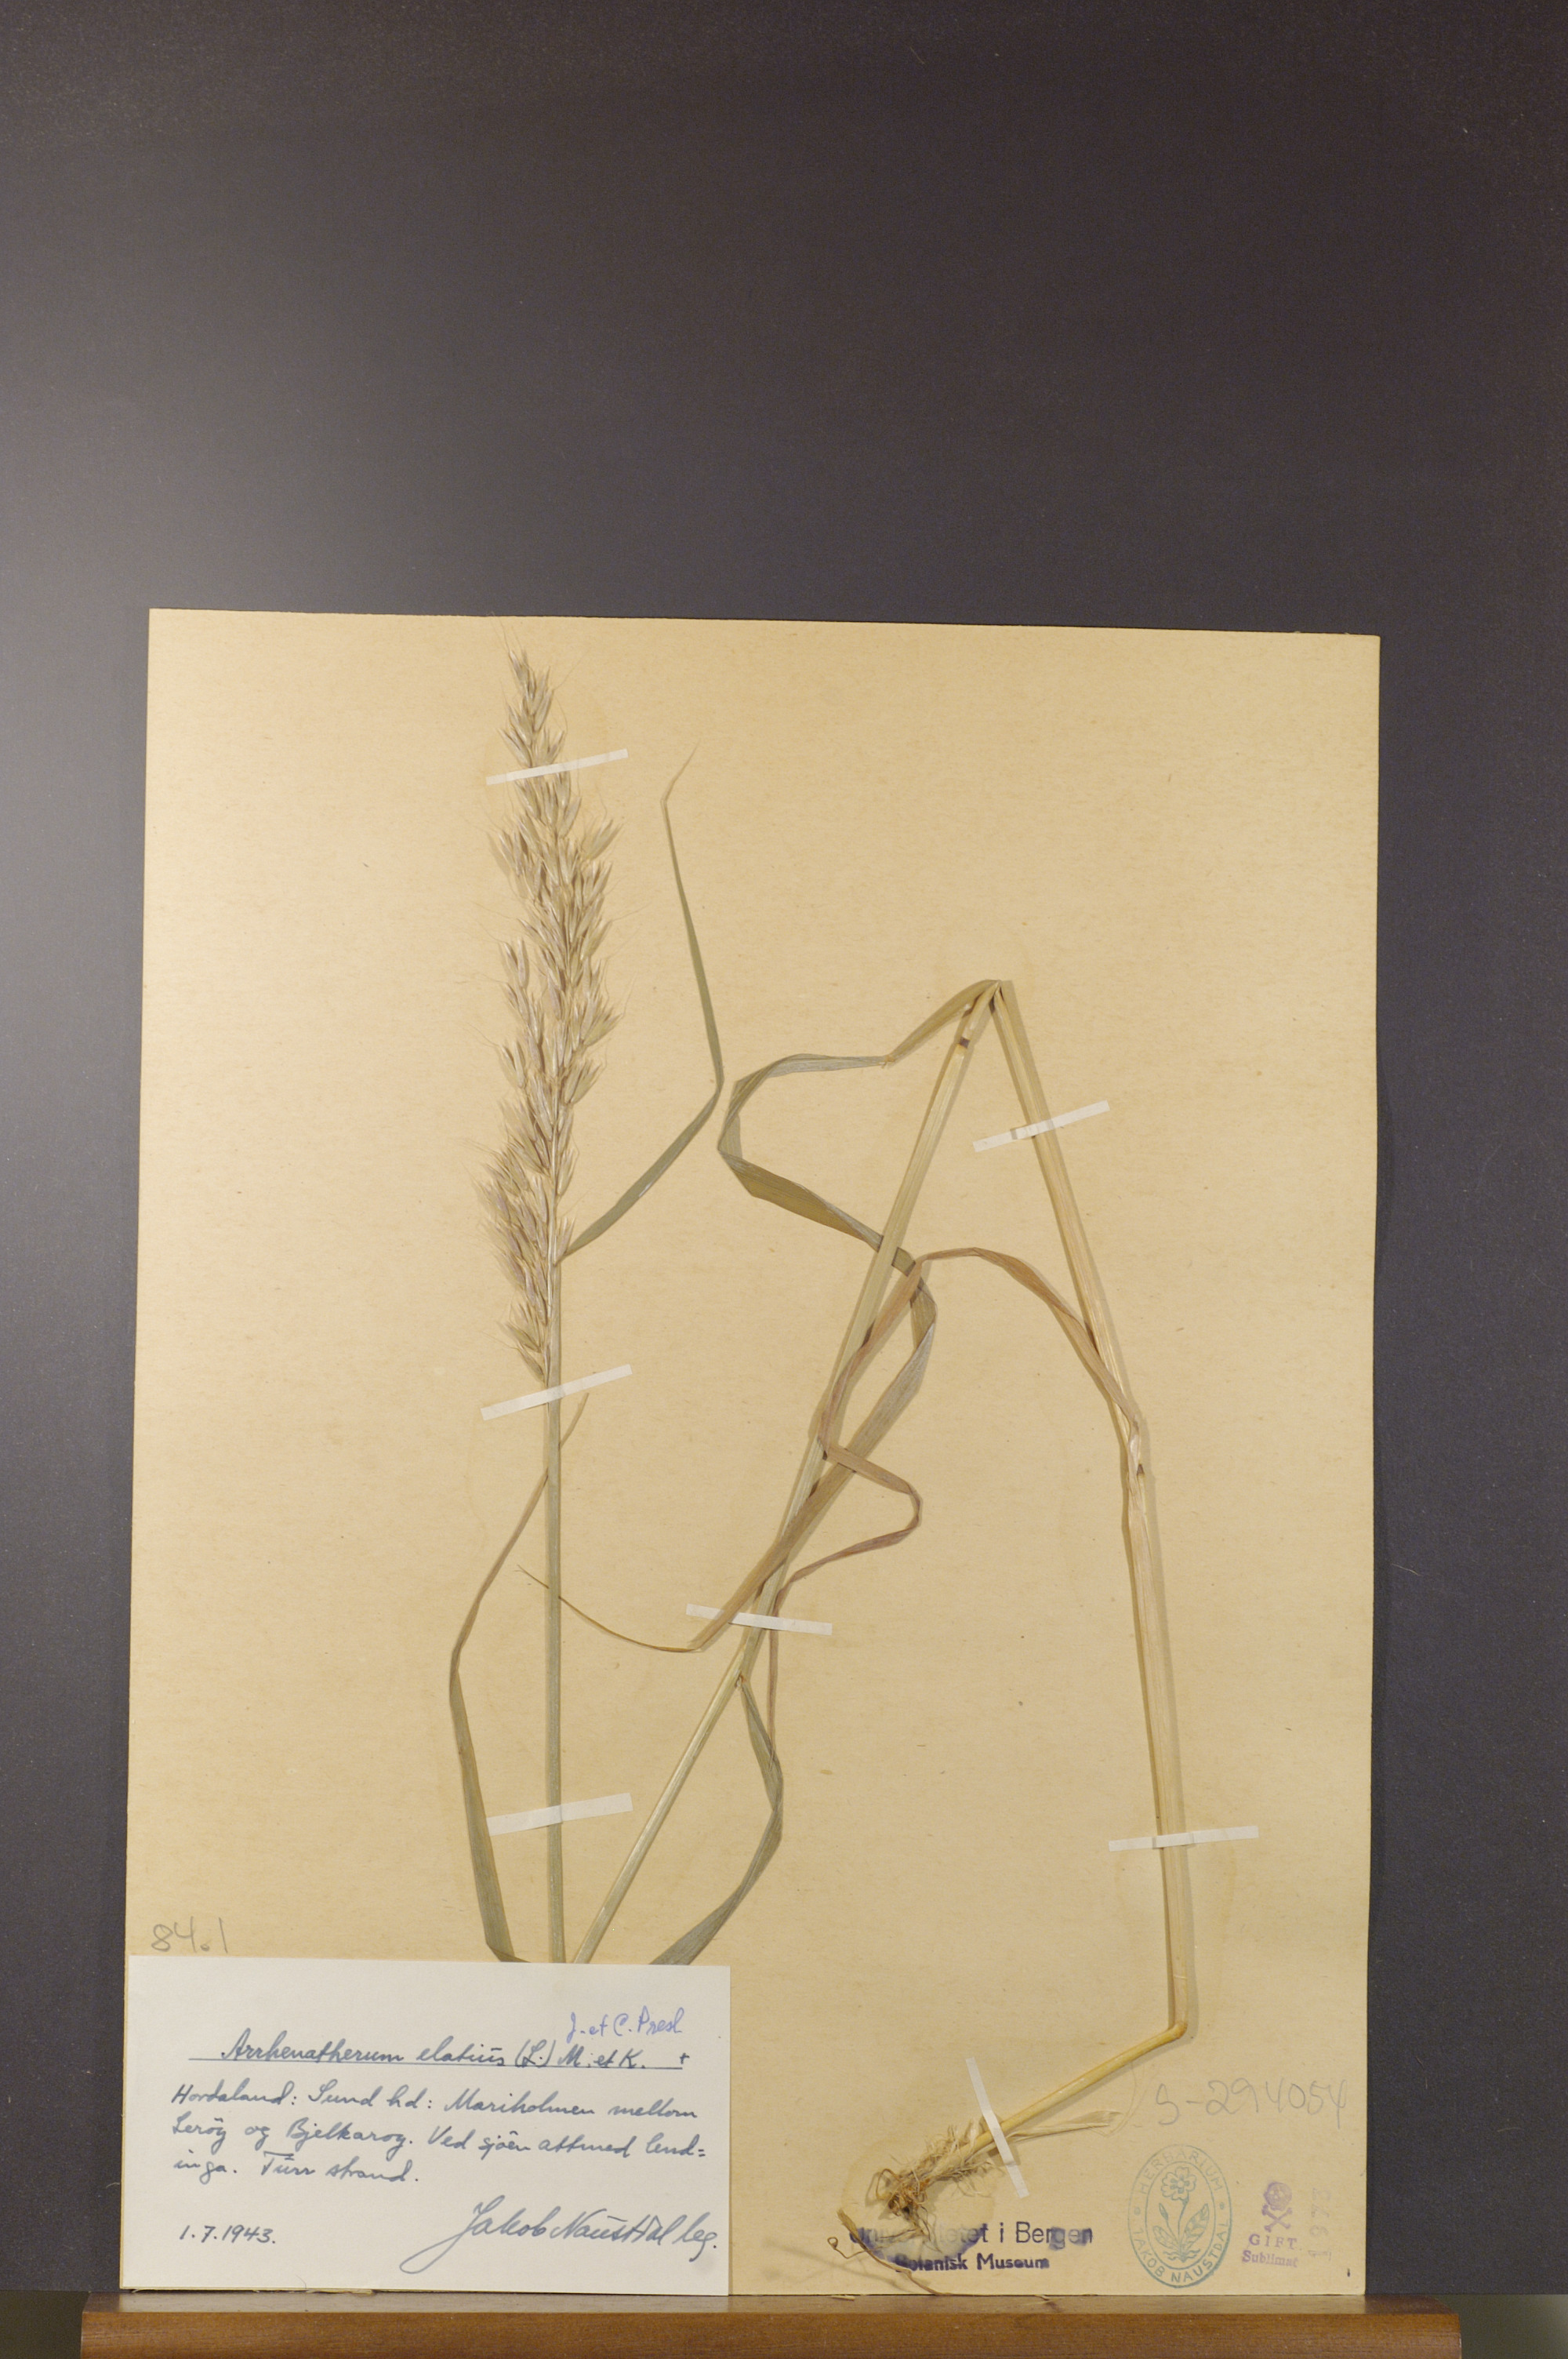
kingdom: Plantae
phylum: Tracheophyta
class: Liliopsida
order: Poales
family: Poaceae
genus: Arrhenatherum
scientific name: Arrhenatherum elatius
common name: Tall oatgrass
